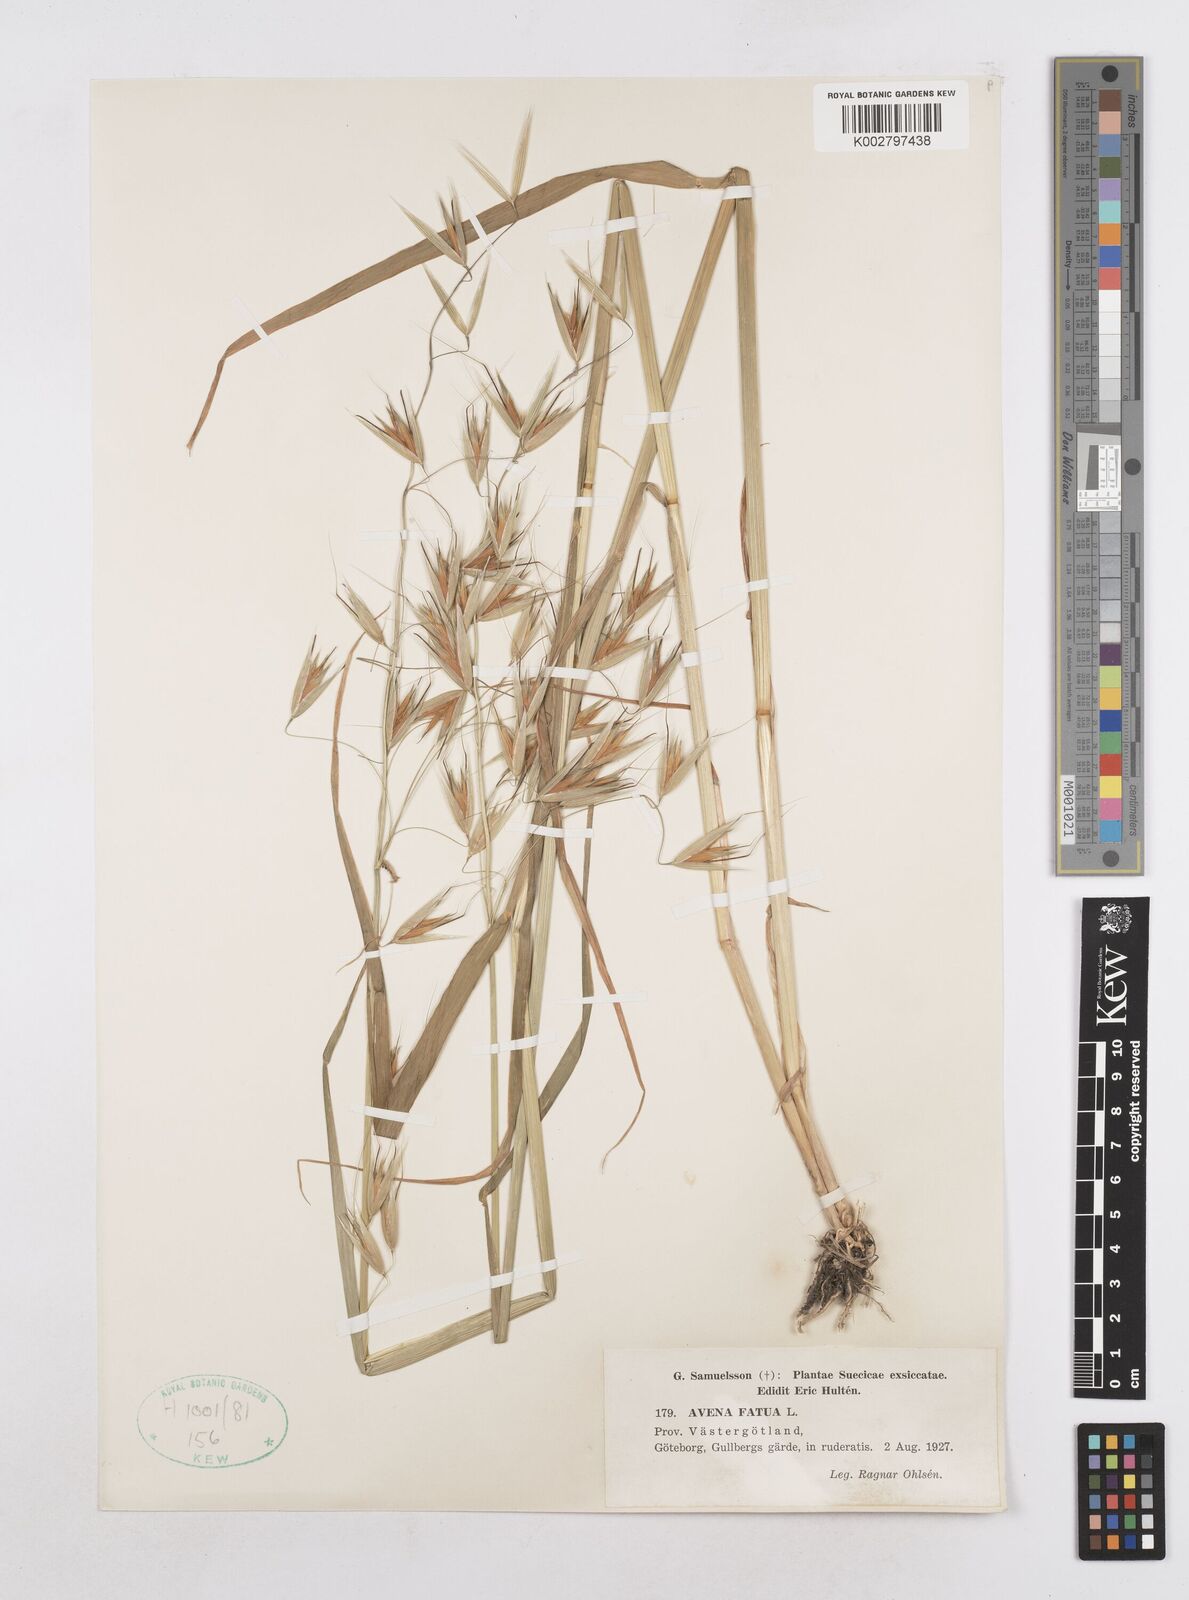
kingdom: Plantae
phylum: Tracheophyta
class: Liliopsida
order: Poales
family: Poaceae
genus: Avena
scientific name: Avena fatua
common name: Wild oat
